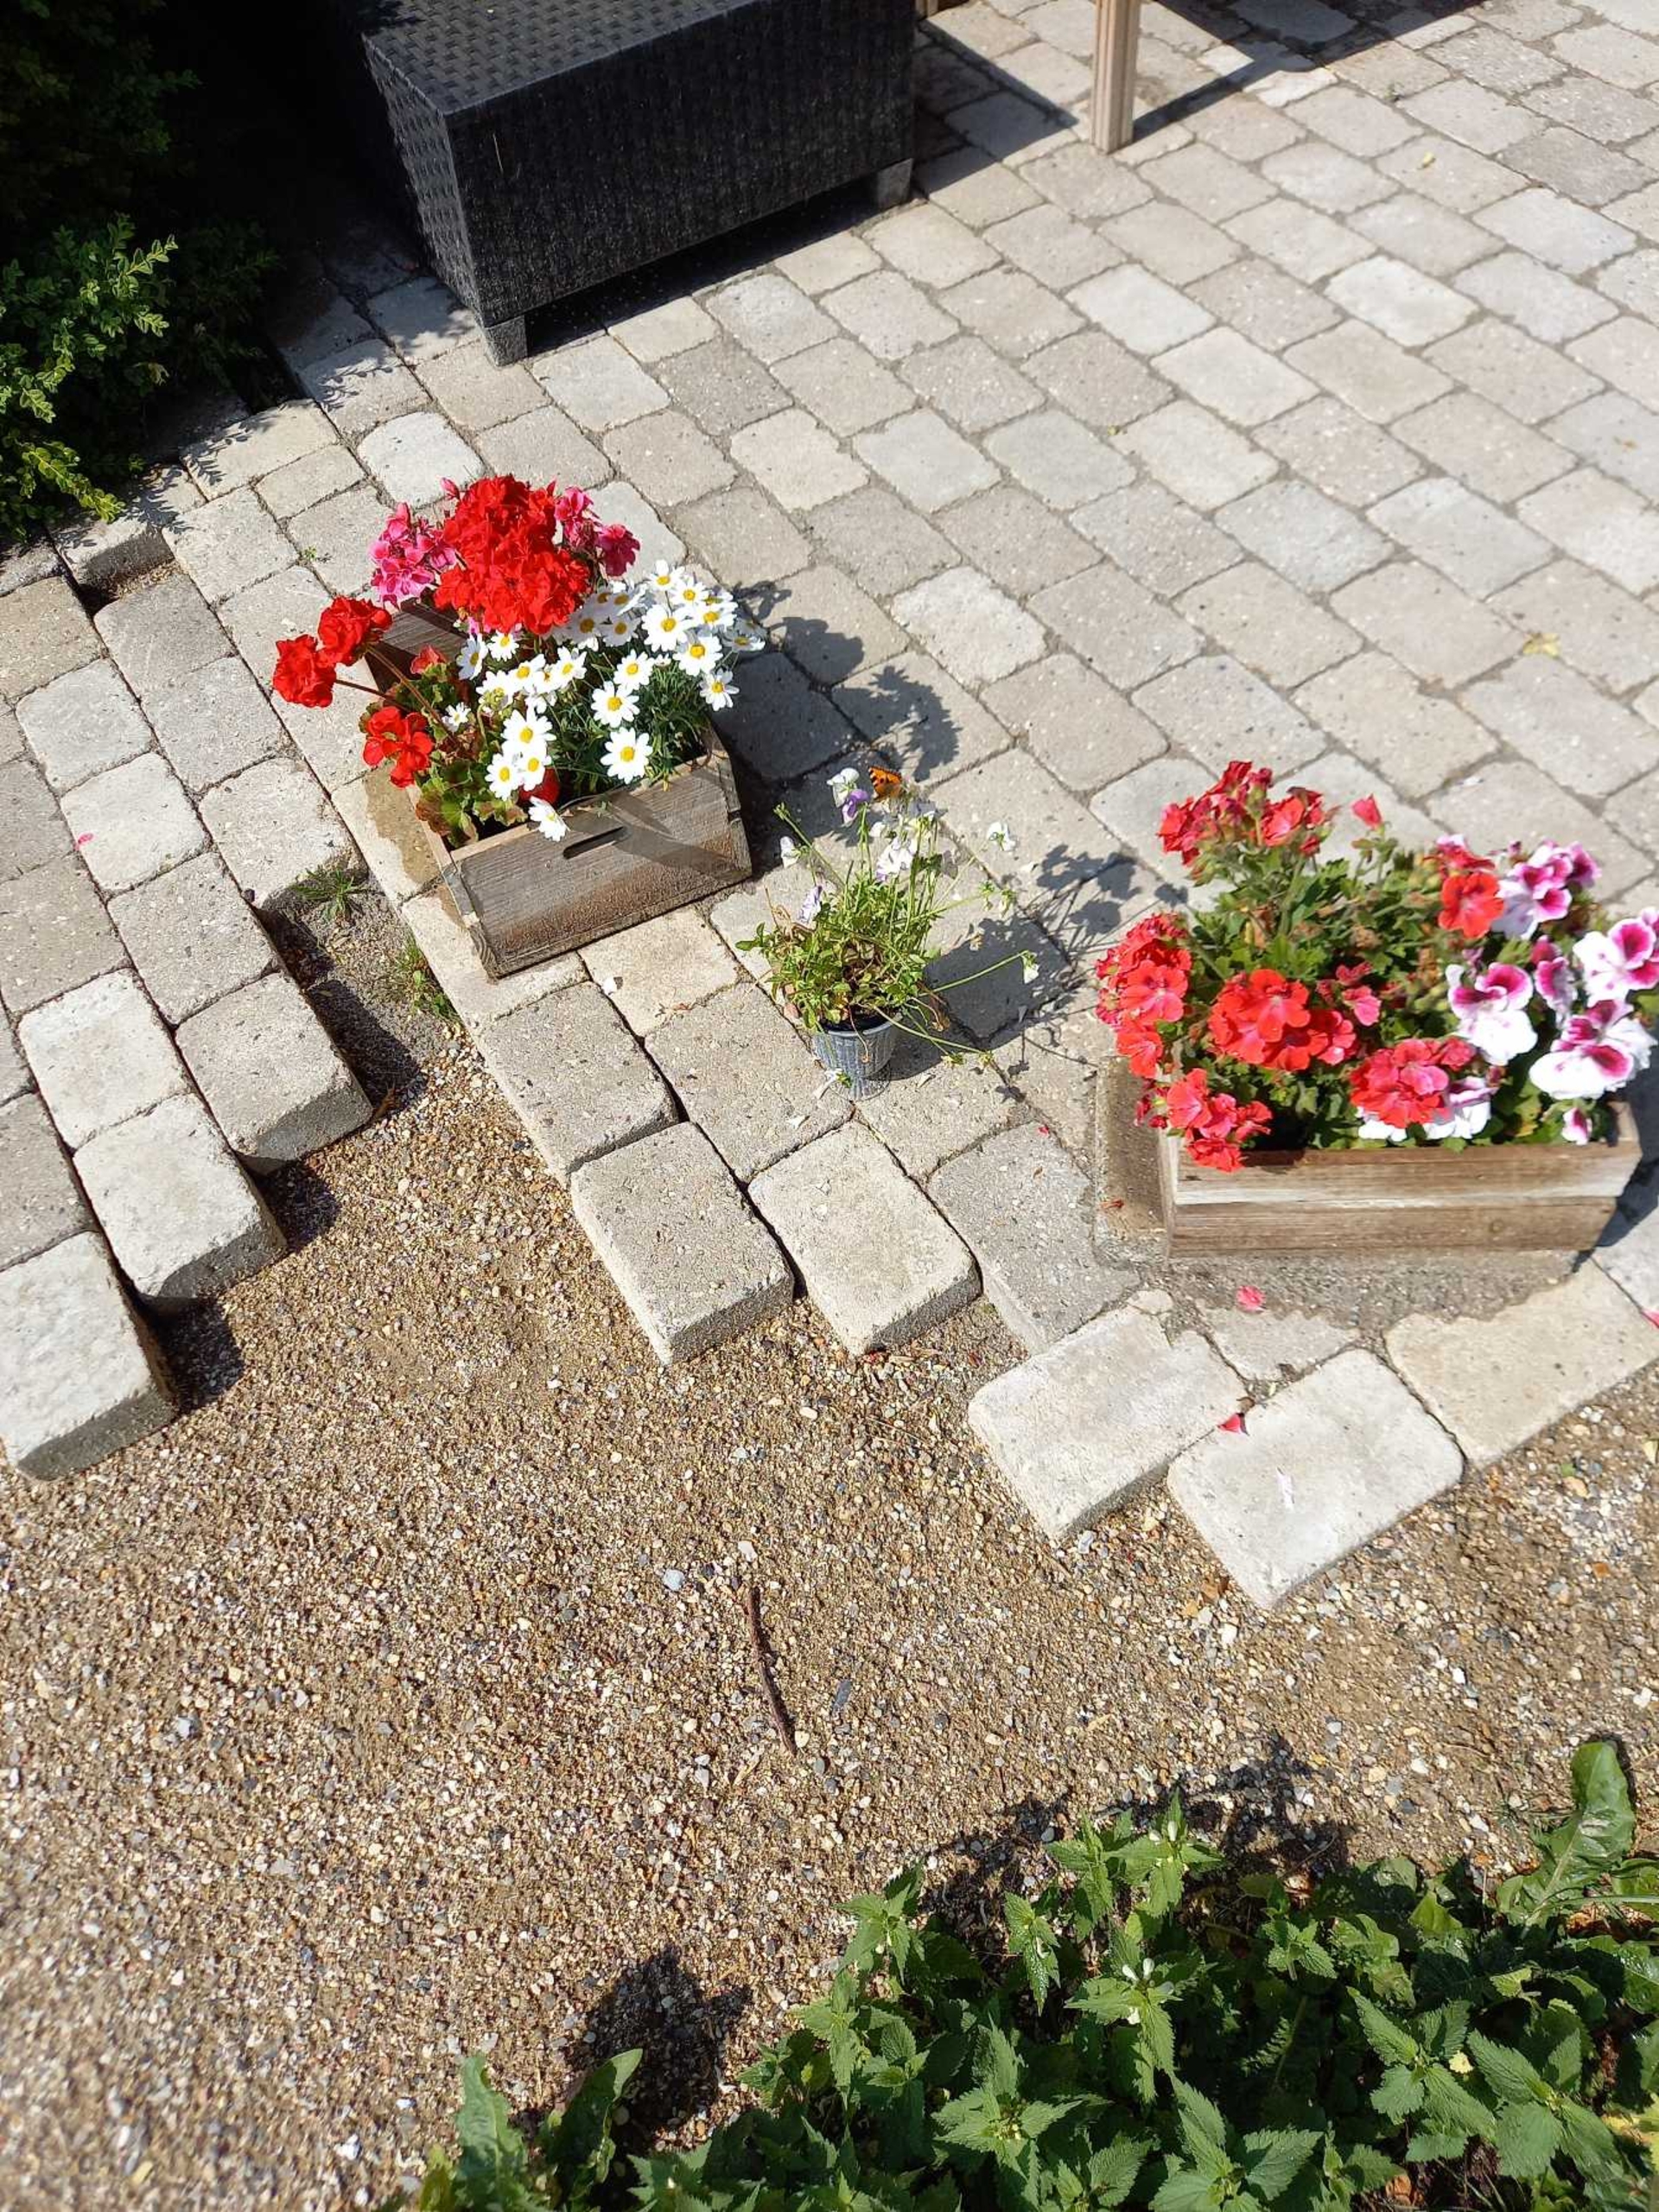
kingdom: Animalia
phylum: Arthropoda
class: Insecta
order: Lepidoptera
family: Nymphalidae
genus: Aglais
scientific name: Aglais urticae
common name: Nældens takvinge
